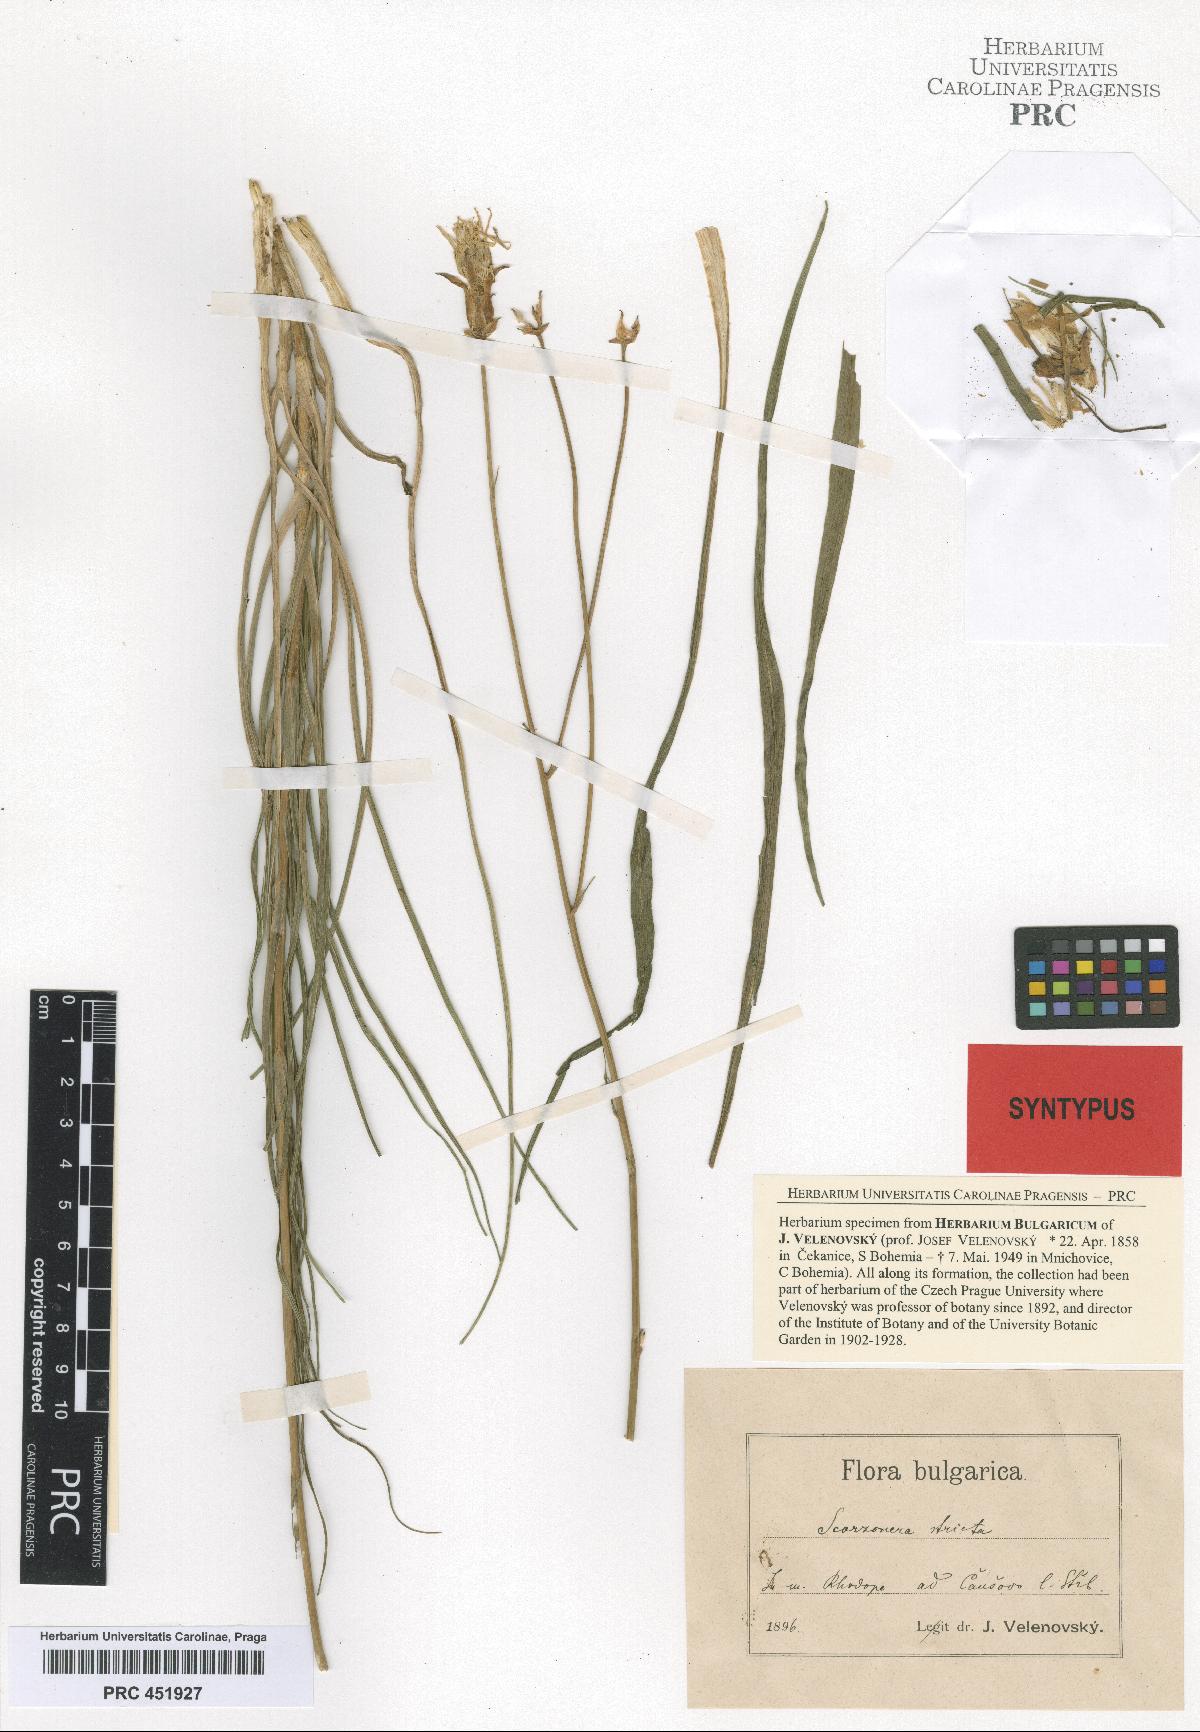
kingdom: Plantae
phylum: Tracheophyta
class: Magnoliopsida
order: Asterales
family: Asteraceae
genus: Pseudopodospermum
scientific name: Pseudopodospermum tauricum
